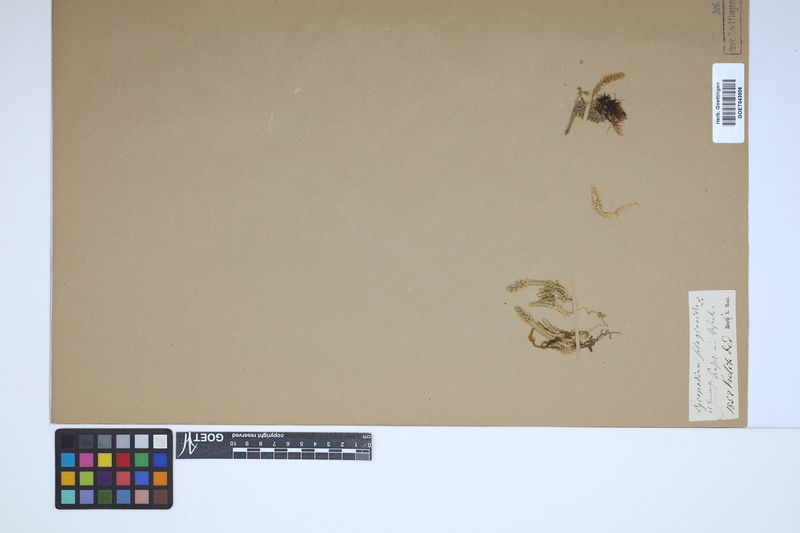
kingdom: Plantae
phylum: Tracheophyta
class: Lycopodiopsida
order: Selaginellales
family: Selaginellaceae
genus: Selaginella
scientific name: Selaginella selaginoides
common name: Prickly mountain-moss
